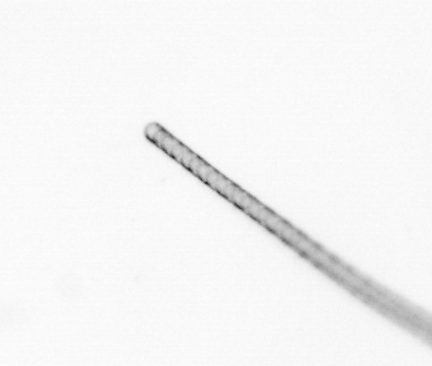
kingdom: Chromista
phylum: Ochrophyta
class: Bacillariophyceae
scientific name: Bacillariophyceae
